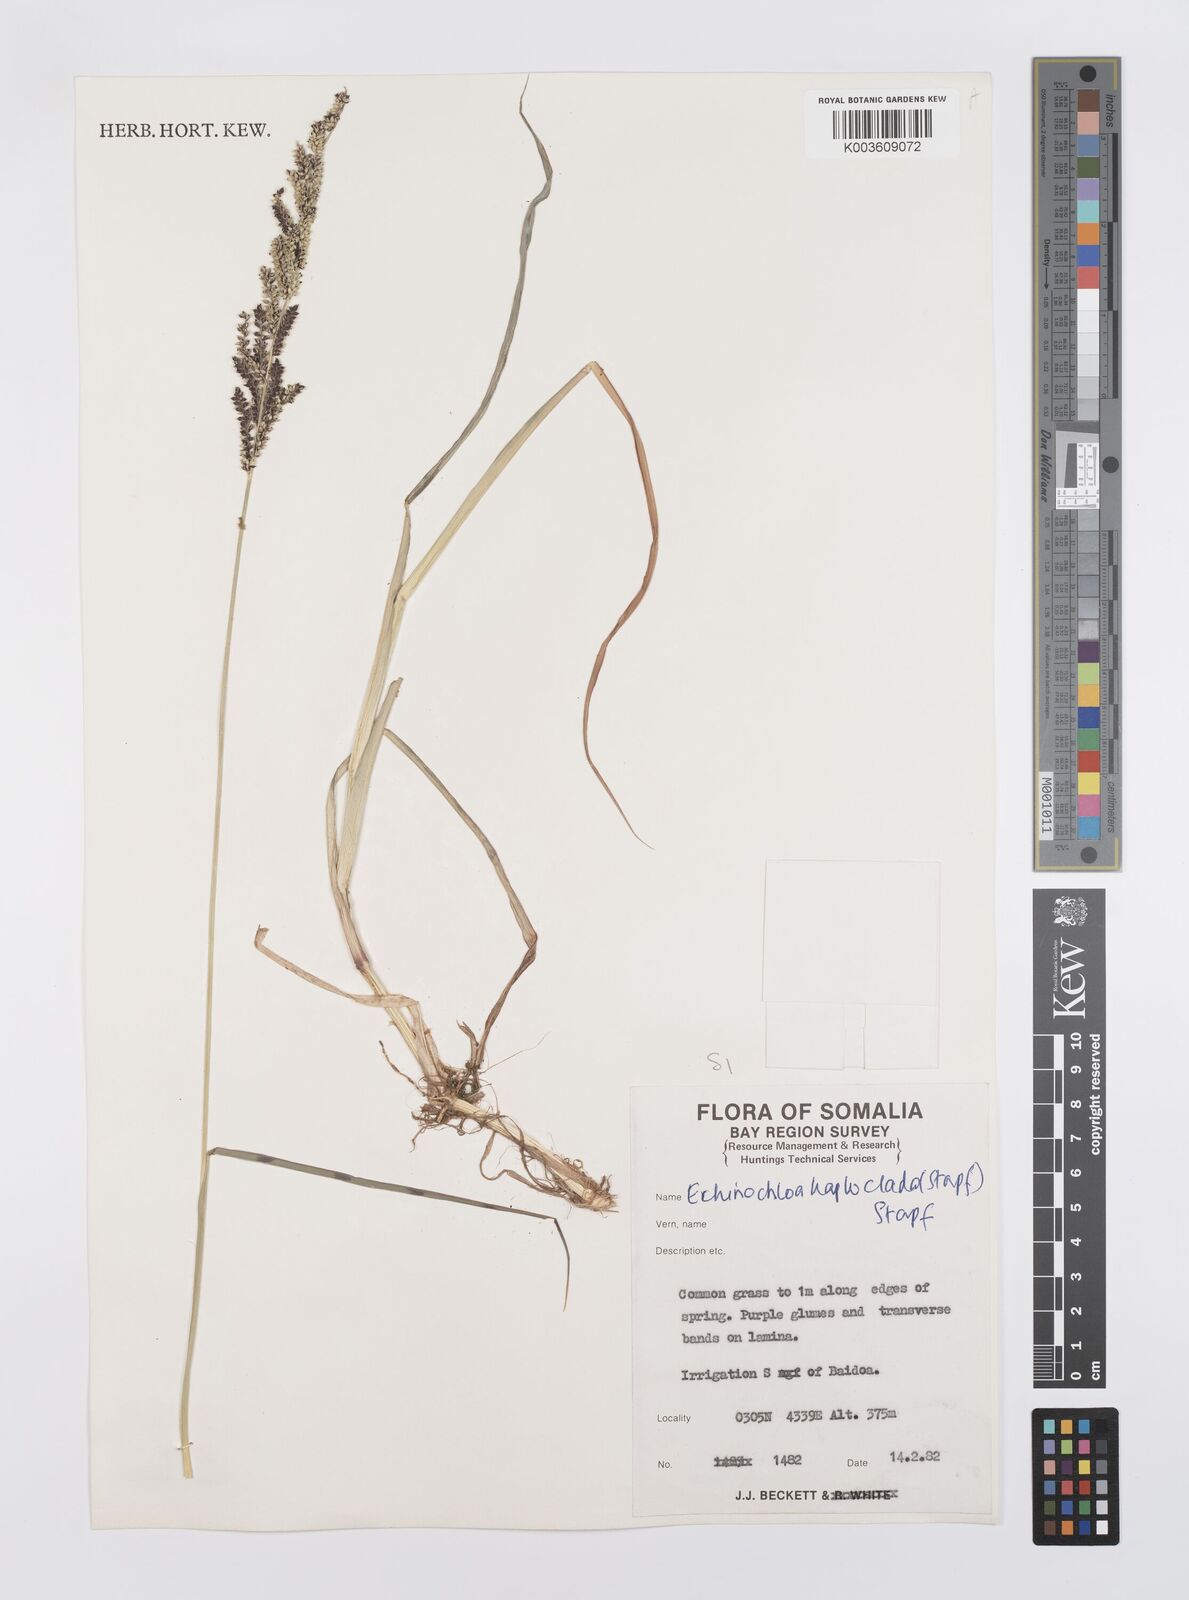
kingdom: Plantae
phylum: Tracheophyta
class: Liliopsida
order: Poales
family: Poaceae
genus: Echinochloa
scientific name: Echinochloa haploclada
